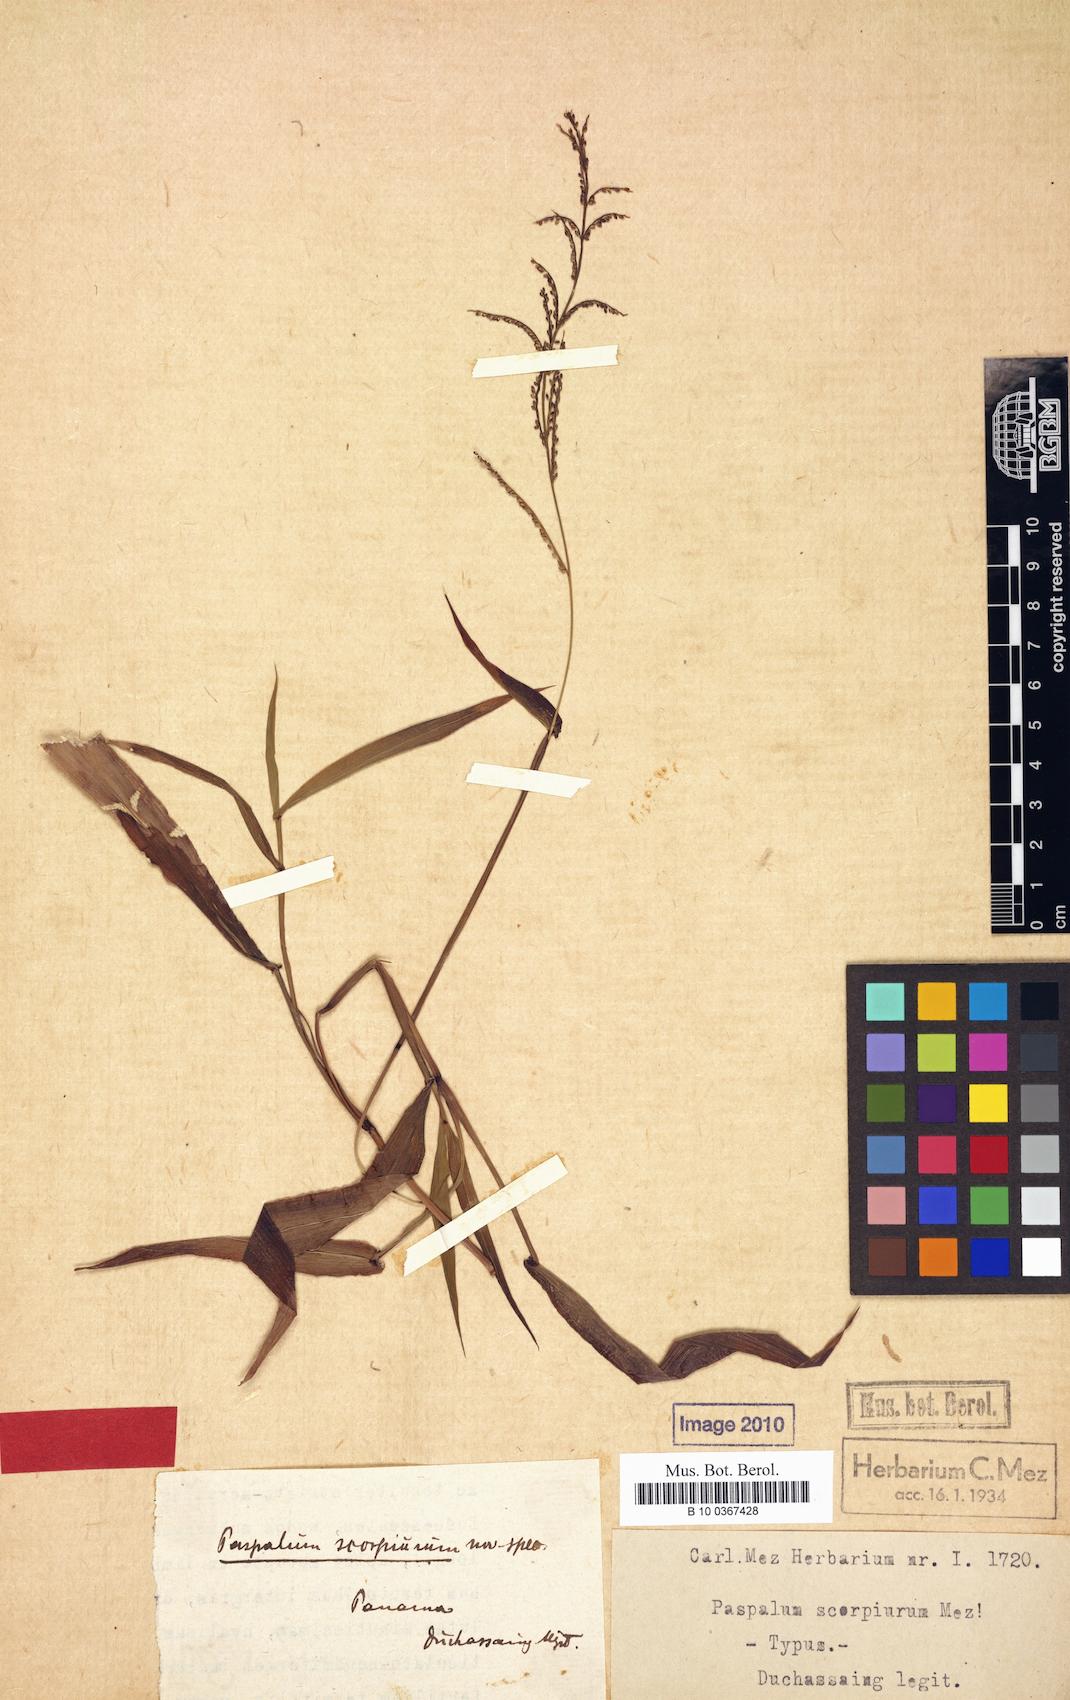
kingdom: Plantae
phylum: Tracheophyta
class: Liliopsida
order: Poales
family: Poaceae
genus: Paspalum
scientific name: Paspalum
